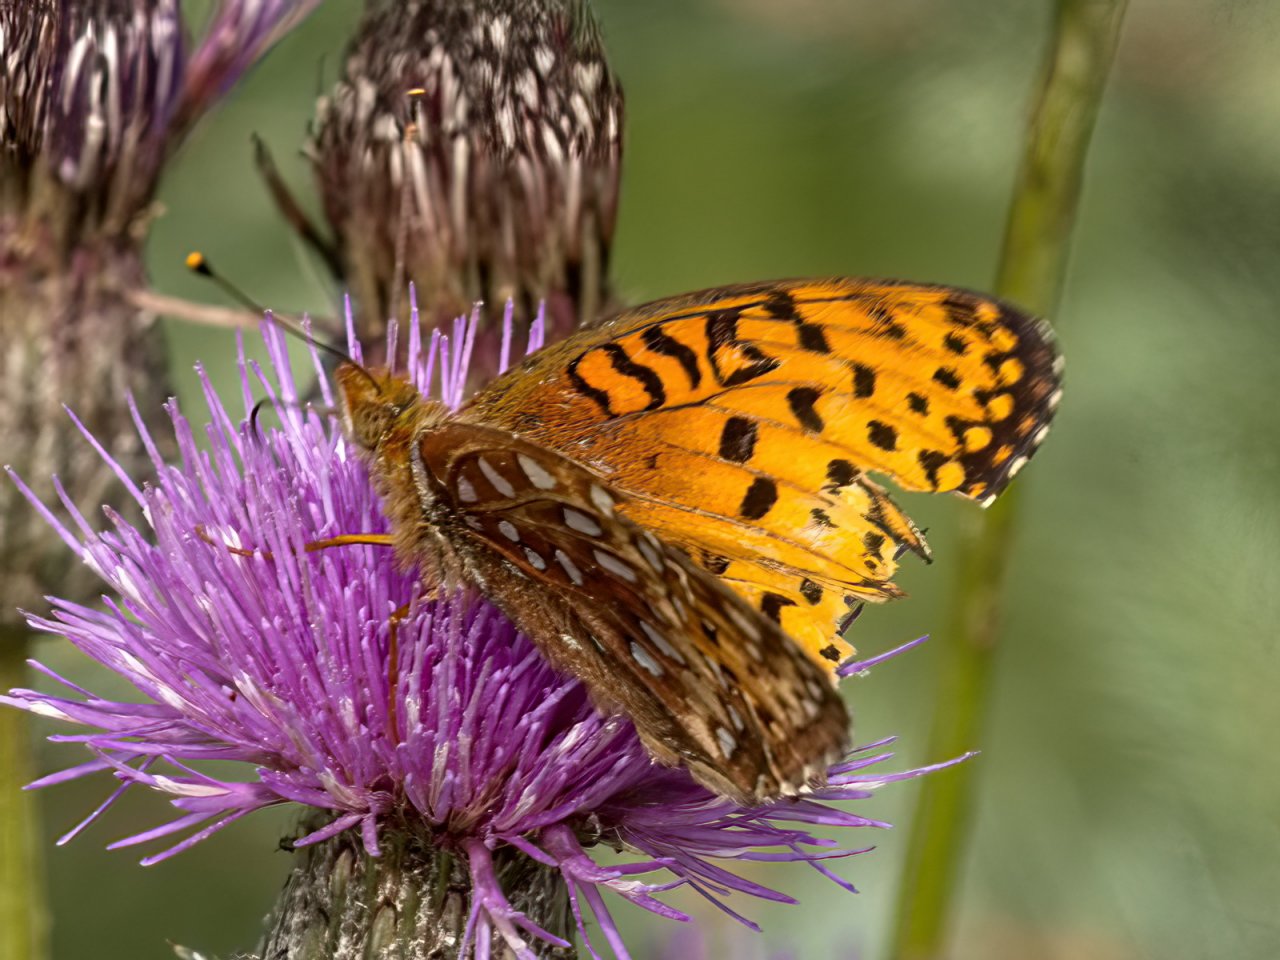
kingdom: Animalia
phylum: Arthropoda
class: Insecta
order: Lepidoptera
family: Nymphalidae
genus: Speyeria
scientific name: Speyeria
